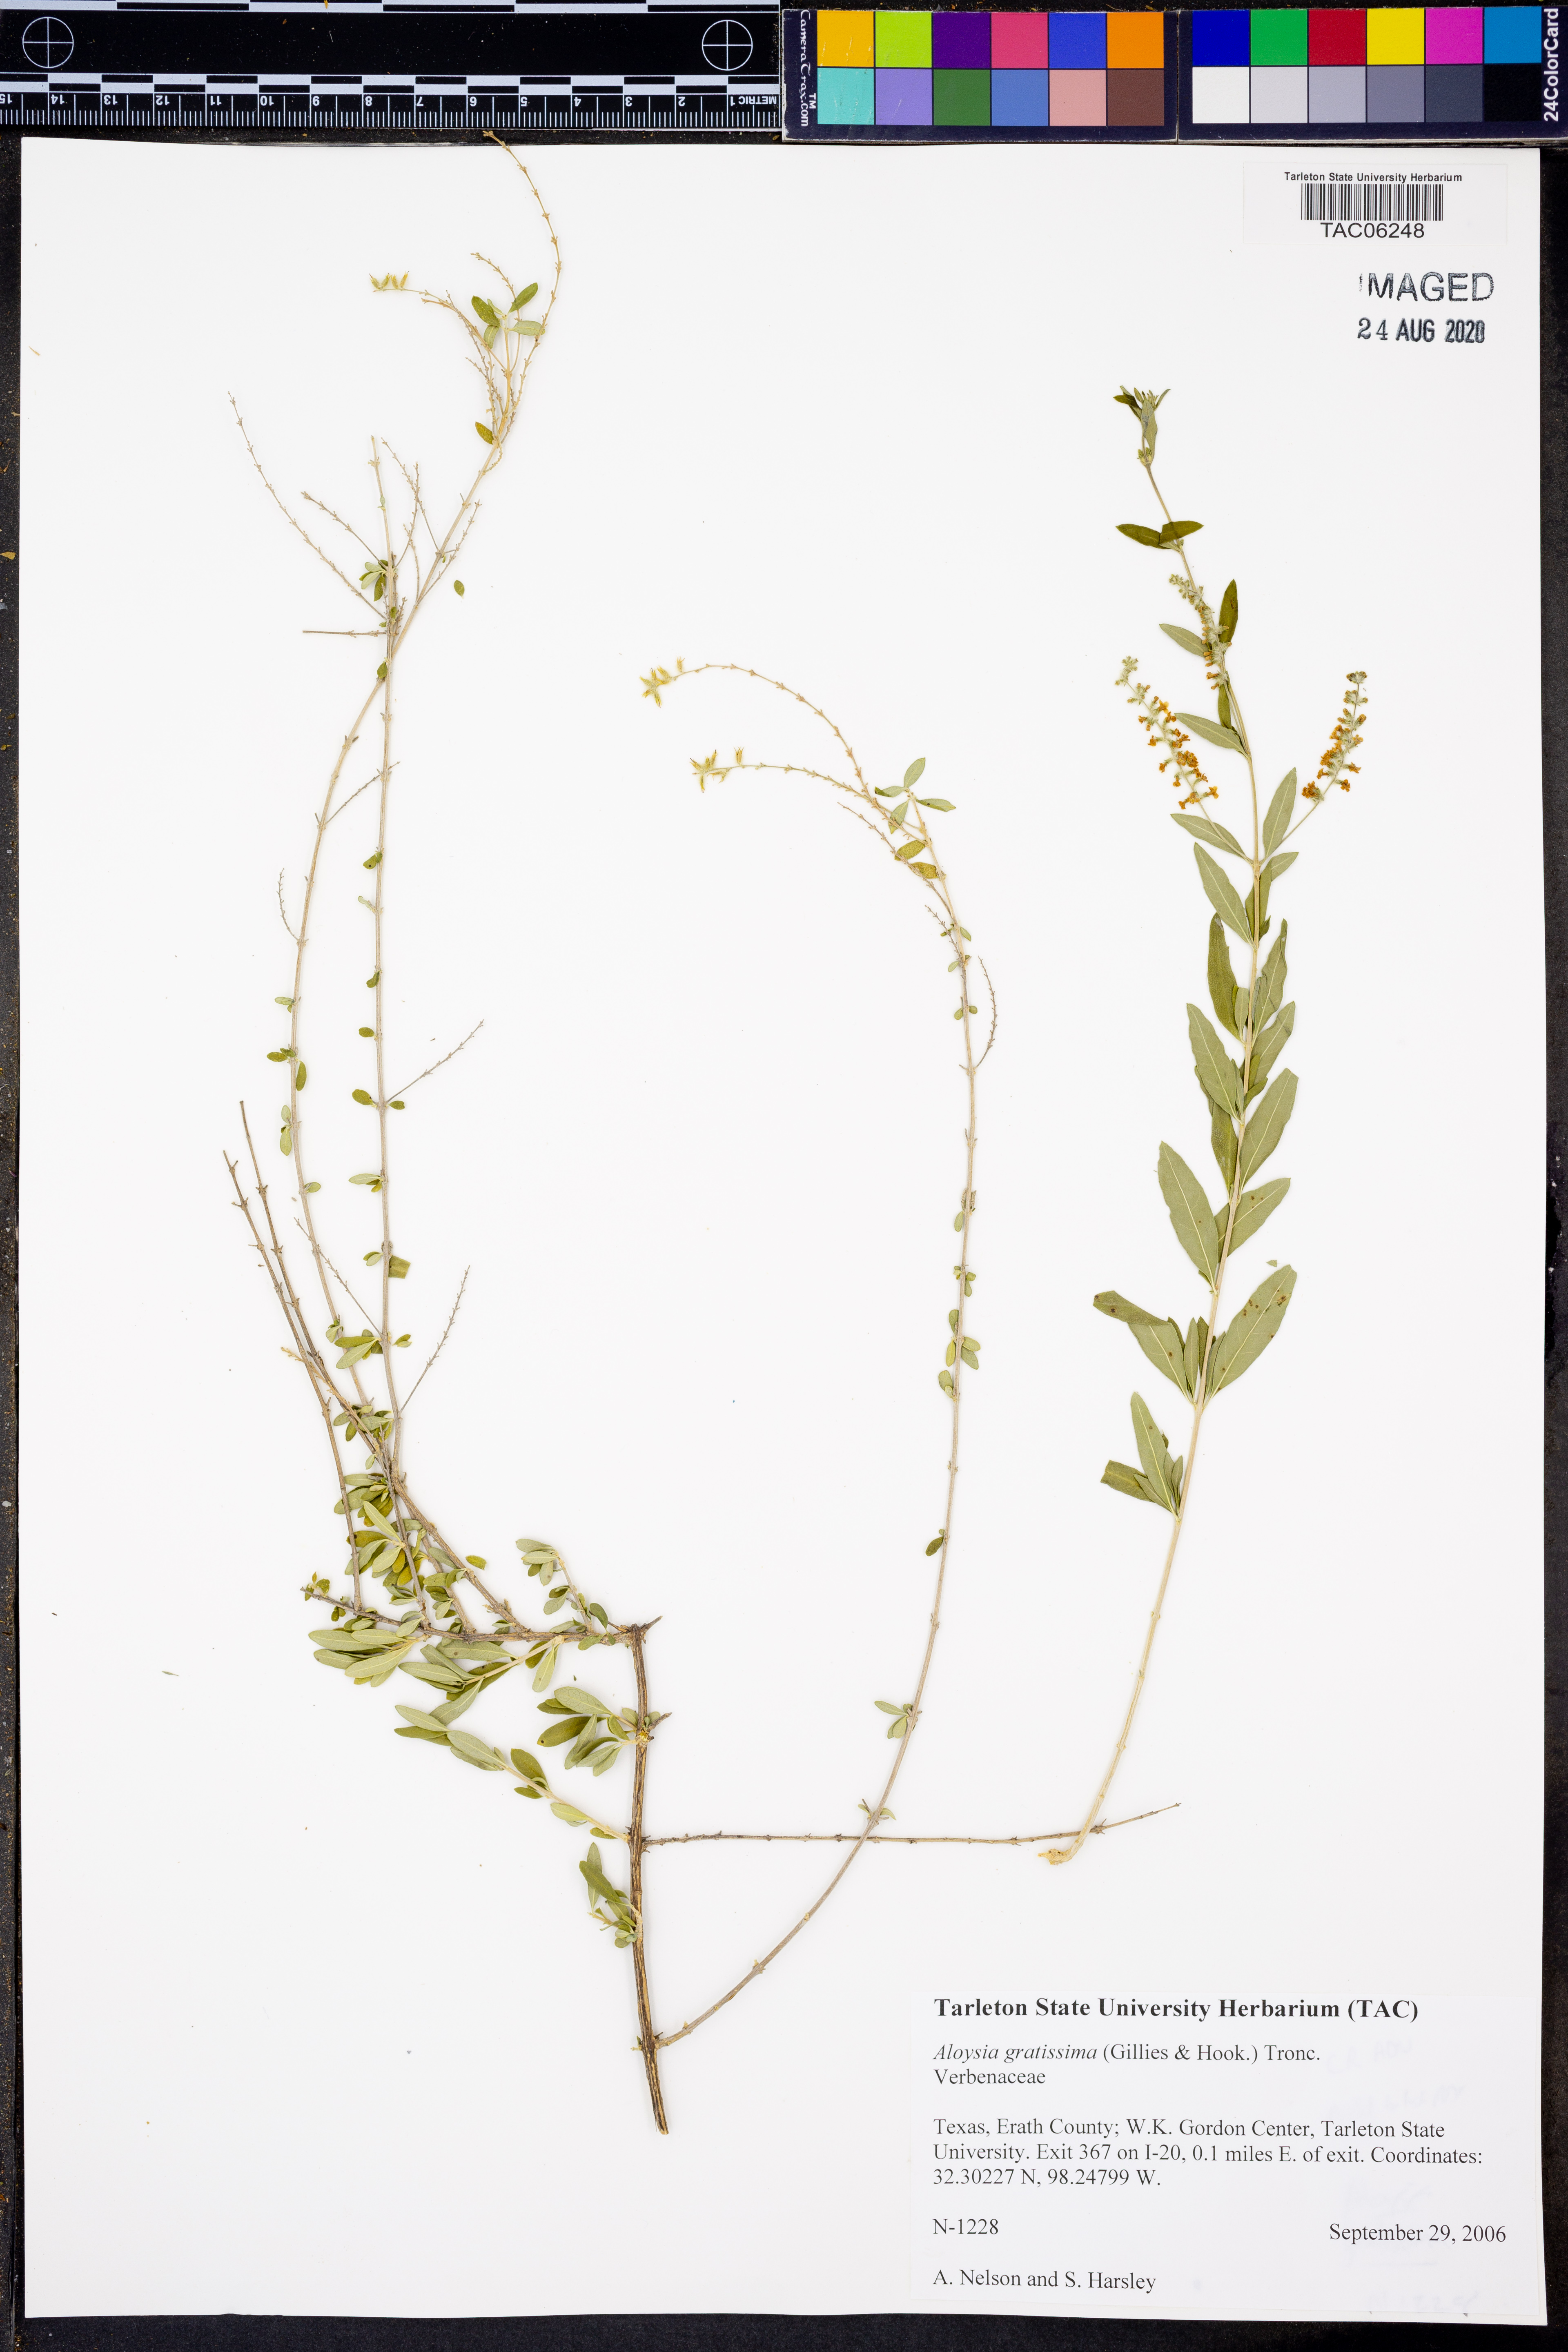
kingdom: Plantae
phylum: Tracheophyta
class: Magnoliopsida
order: Lamiales
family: Verbenaceae
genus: Aloysia
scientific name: Aloysia gratissima
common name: Common bee-brush
